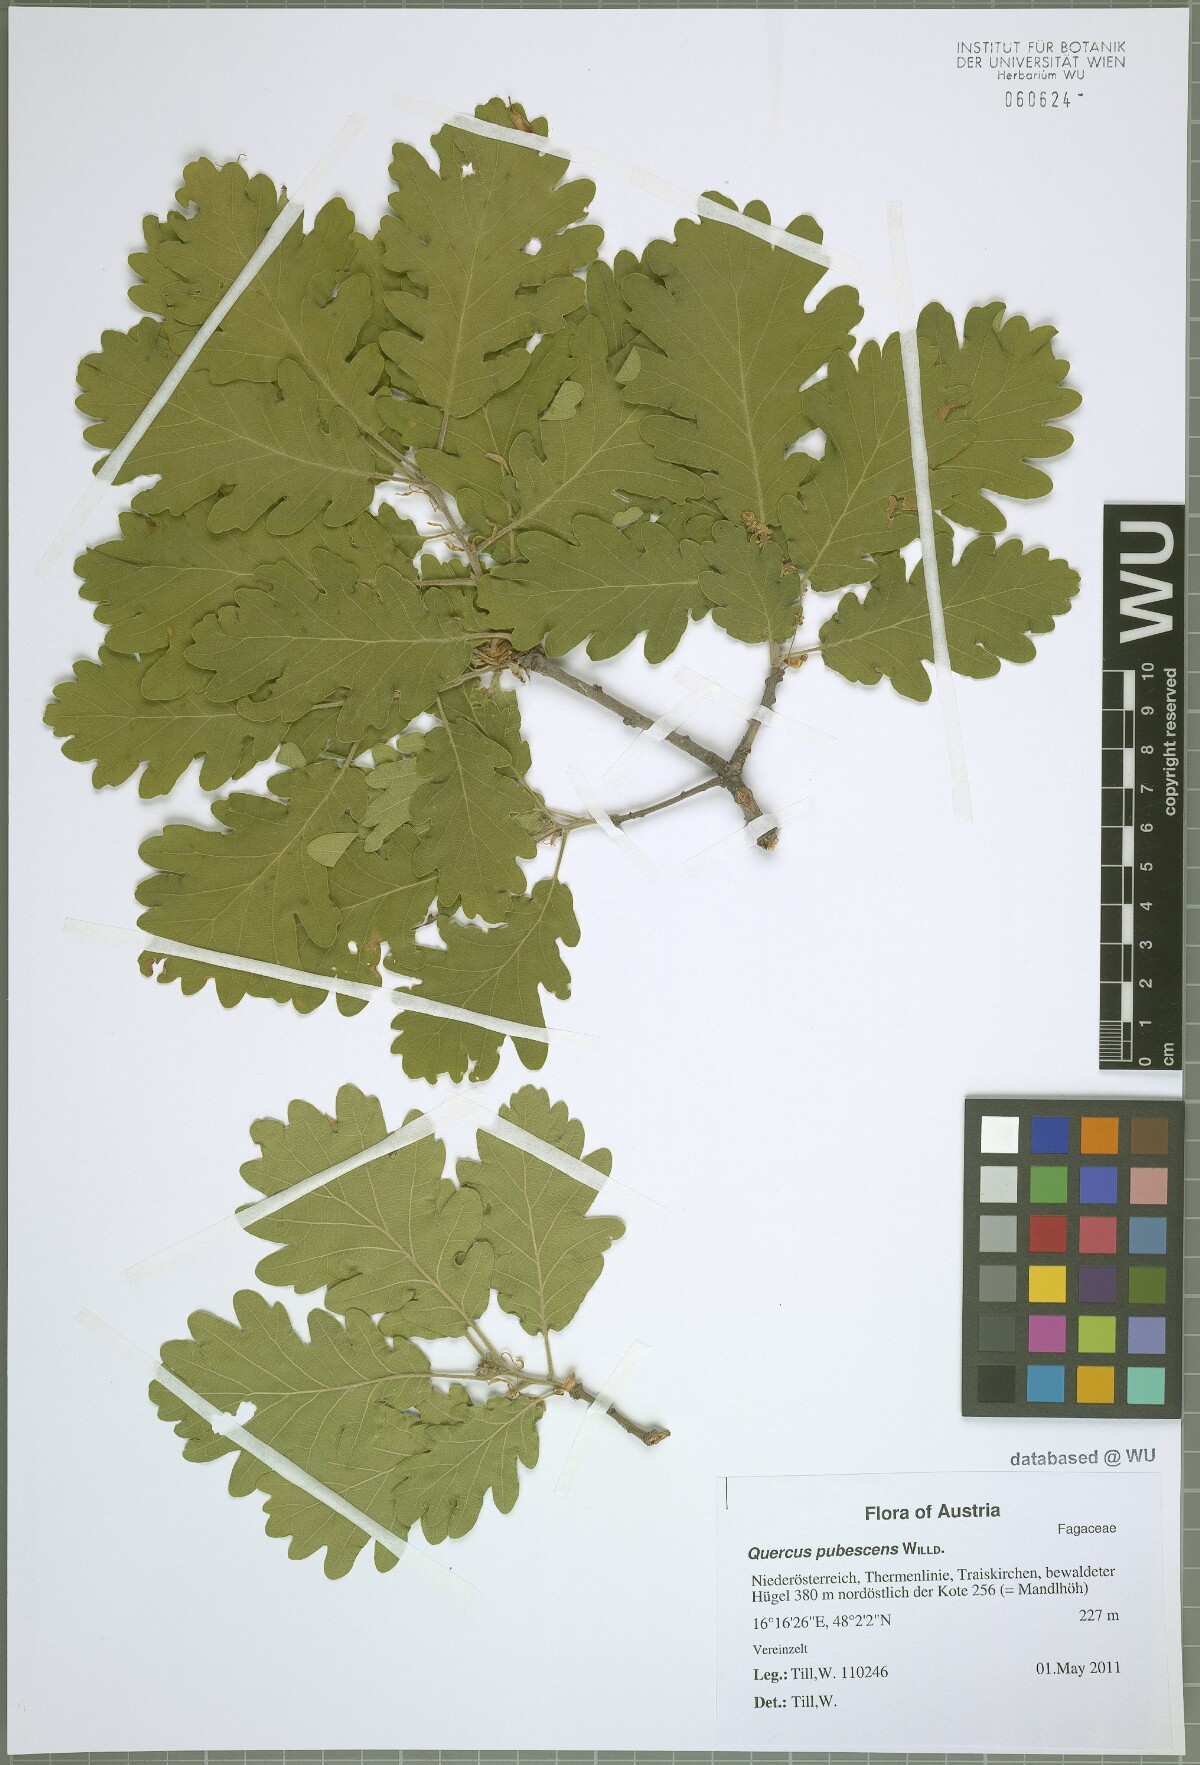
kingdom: Plantae
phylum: Tracheophyta
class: Magnoliopsida
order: Fagales
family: Fagaceae
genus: Quercus
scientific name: Quercus pubescens
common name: Downy oak
